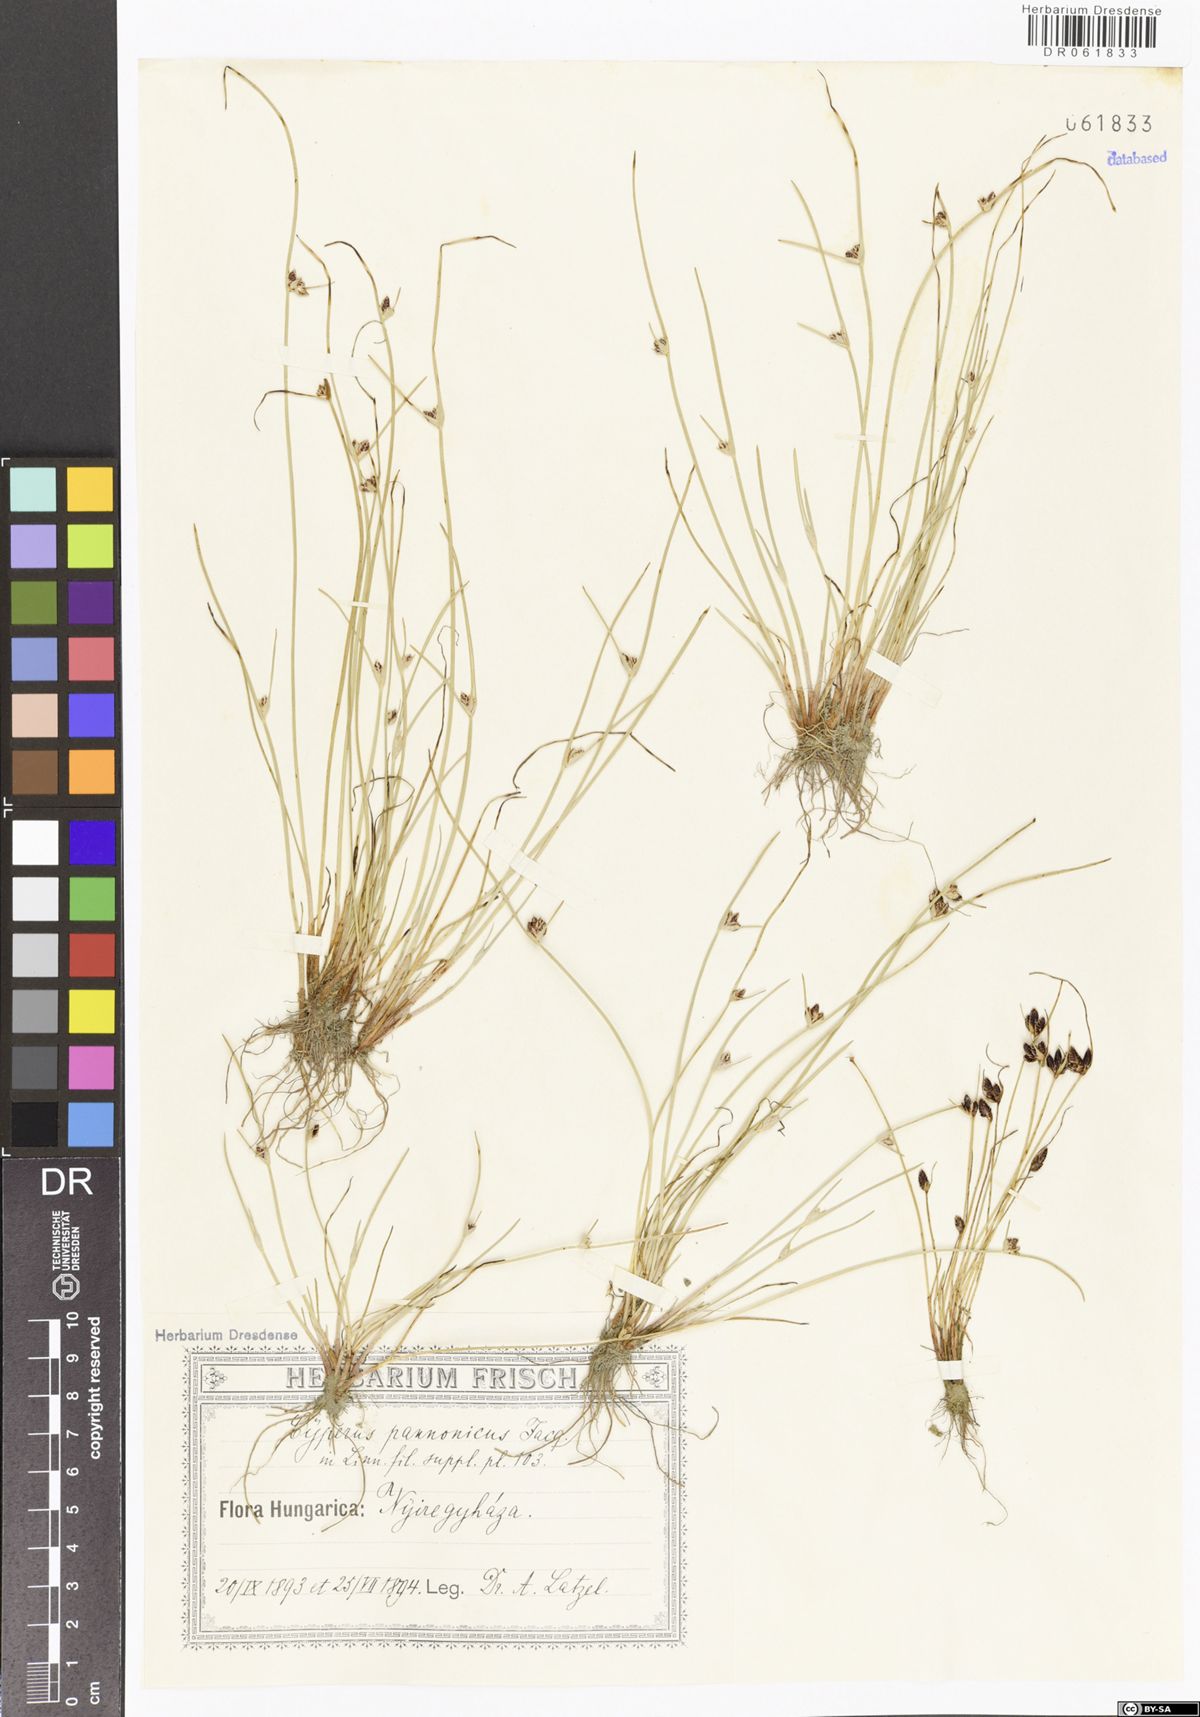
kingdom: Plantae
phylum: Tracheophyta
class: Liliopsida
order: Poales
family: Cyperaceae
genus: Cyperus
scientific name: Cyperus pannonicus
